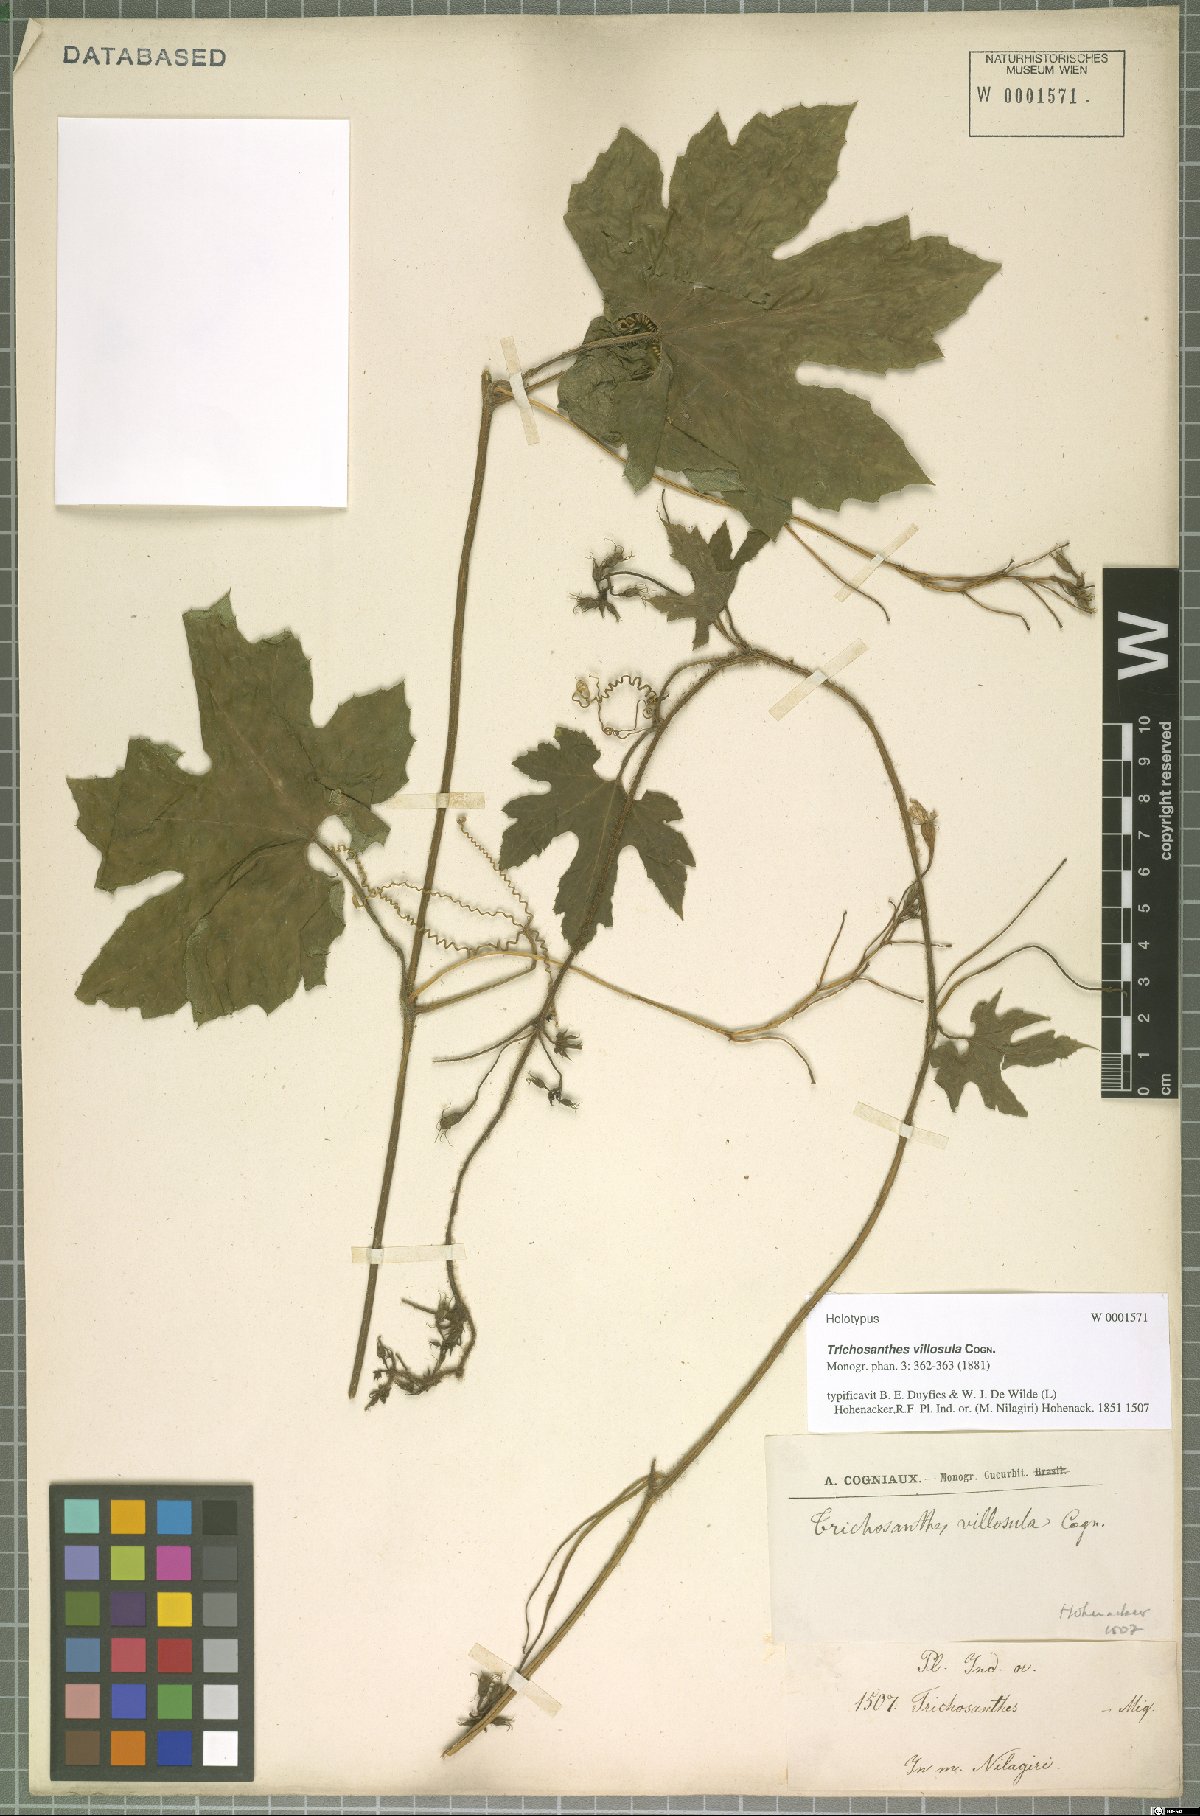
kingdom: Plantae
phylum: Tracheophyta
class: Magnoliopsida
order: Cucurbitales
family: Cucurbitaceae
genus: Trichosanthes
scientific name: Trichosanthes cucumerina
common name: Snakegourd
